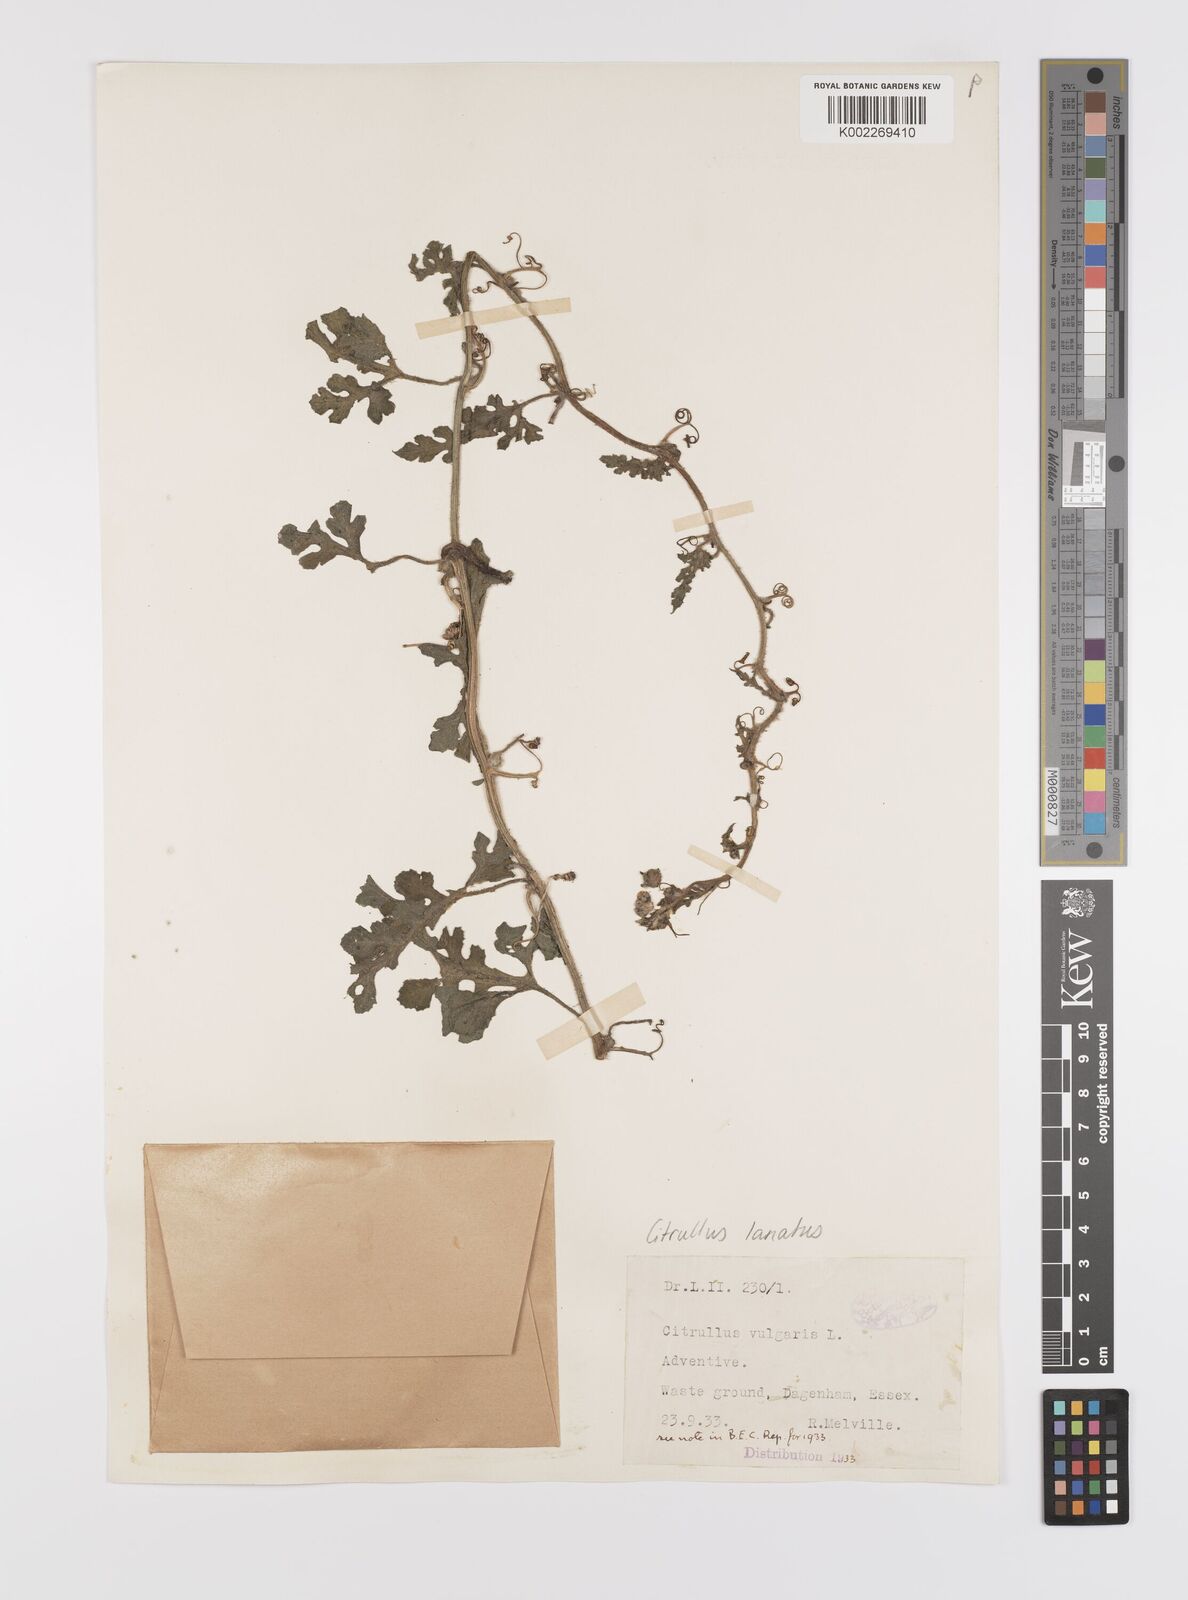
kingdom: Plantae
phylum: Tracheophyta
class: Magnoliopsida
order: Cucurbitales
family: Cucurbitaceae
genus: Citrullus
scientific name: Citrullus lanatus
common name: Watermelon
